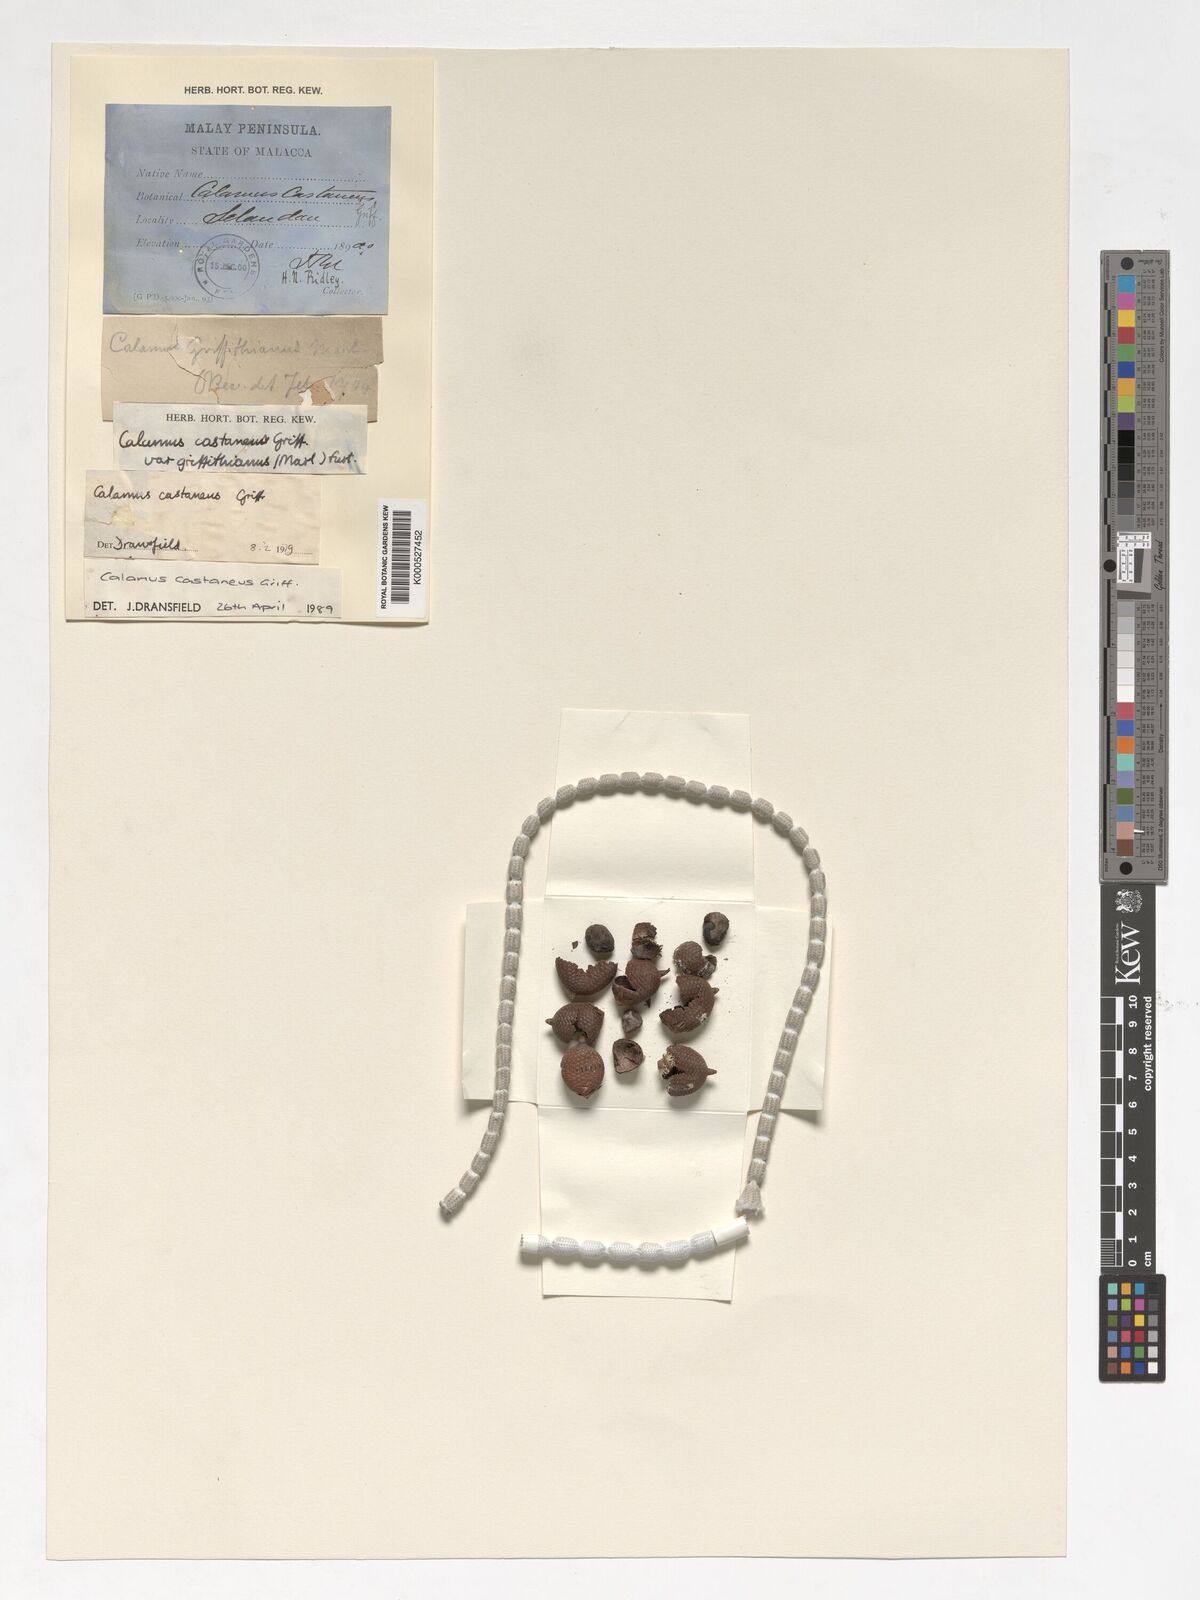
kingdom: Plantae
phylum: Tracheophyta
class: Liliopsida
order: Arecales
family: Arecaceae
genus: Calamus
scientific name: Calamus castaneus
